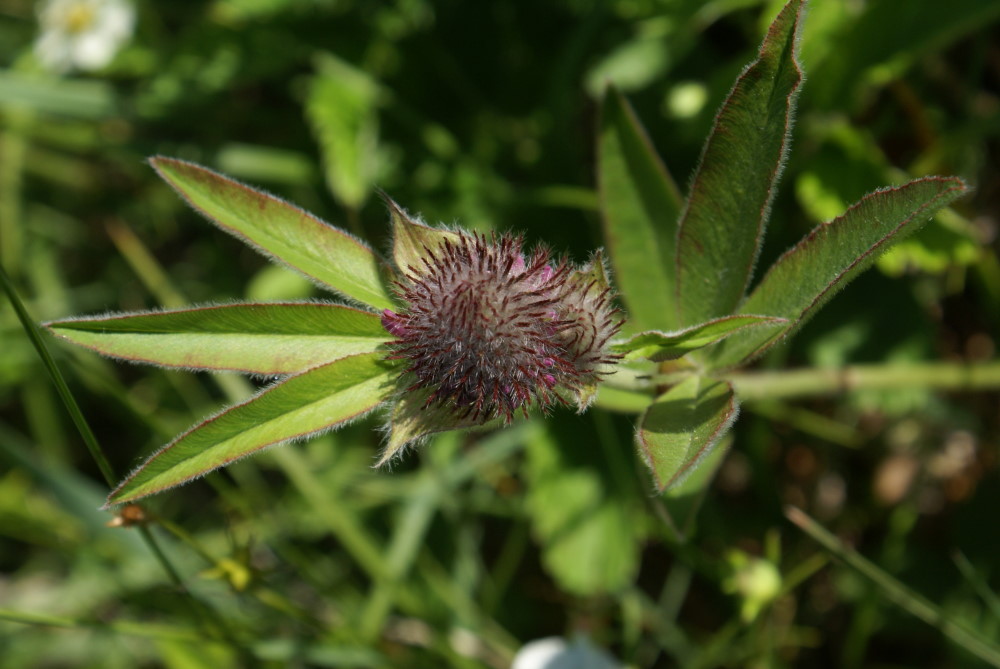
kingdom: Plantae
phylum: Tracheophyta
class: Magnoliopsida
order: Fabales
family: Fabaceae
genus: Trifolium
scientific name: Trifolium alpestre
